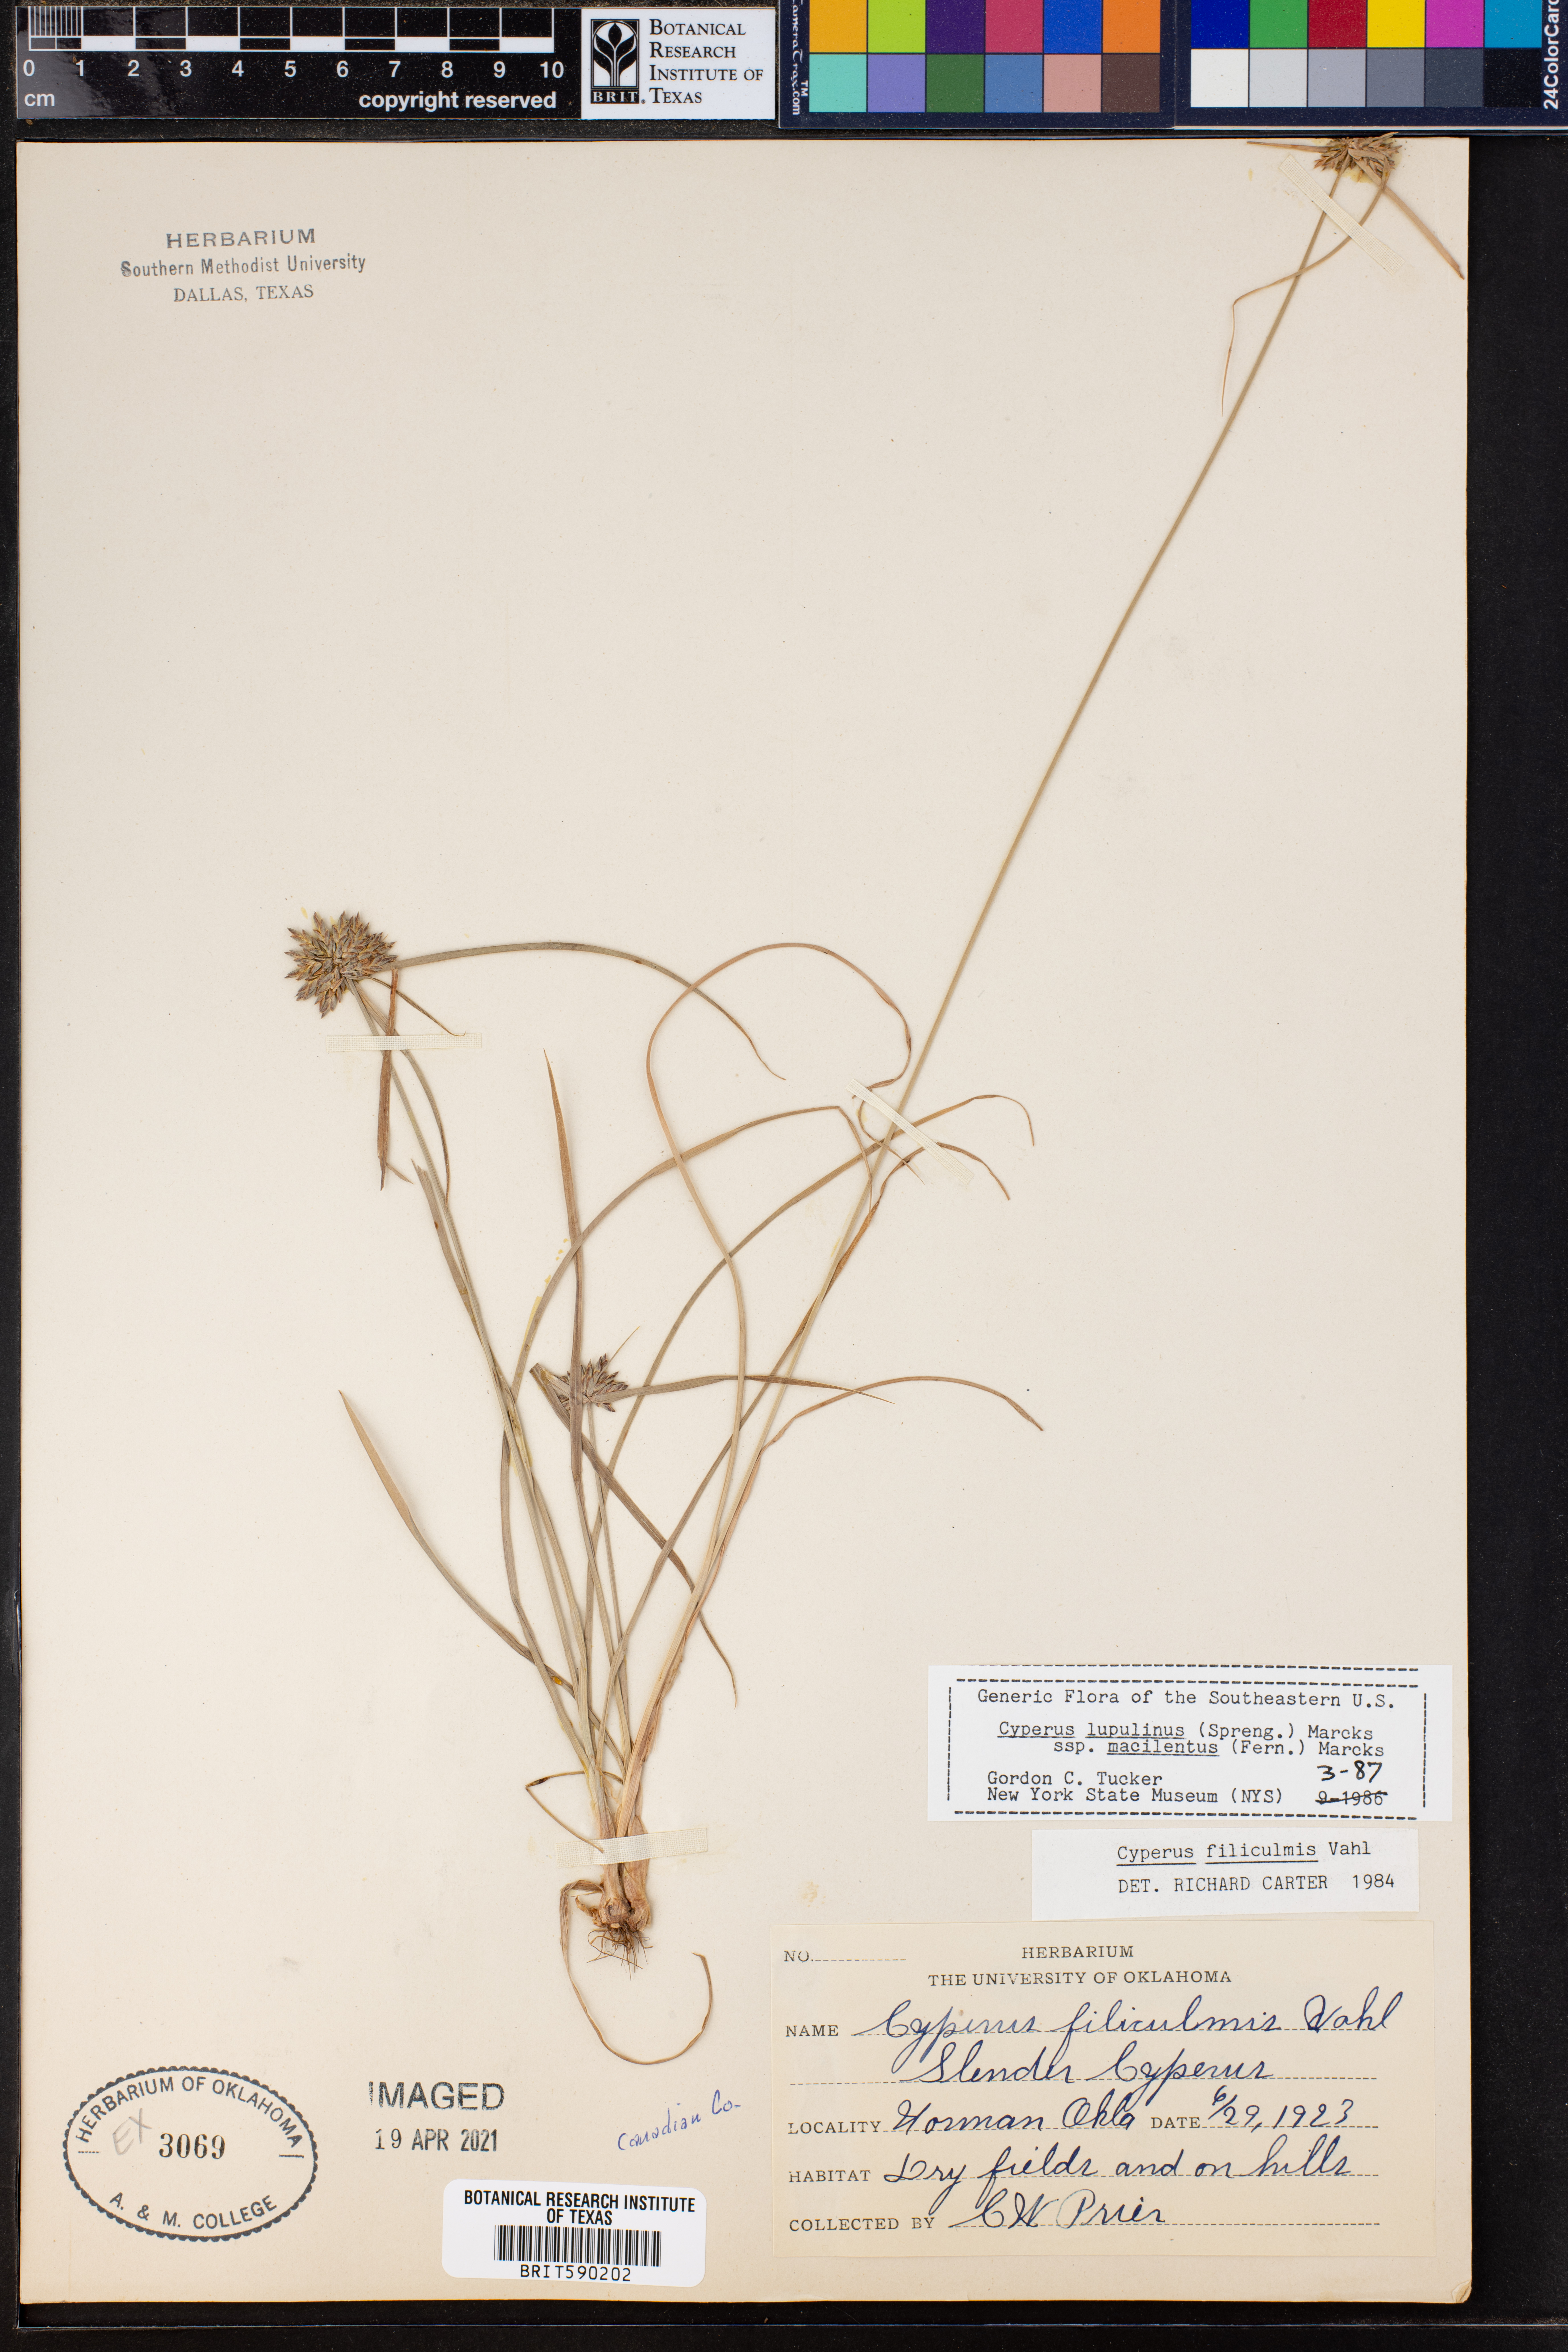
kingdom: Plantae
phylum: Tracheophyta
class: Liliopsida
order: Poales
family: Cyperaceae
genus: Cyperus
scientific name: Cyperus lupulinus
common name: Great plains flatsedge
